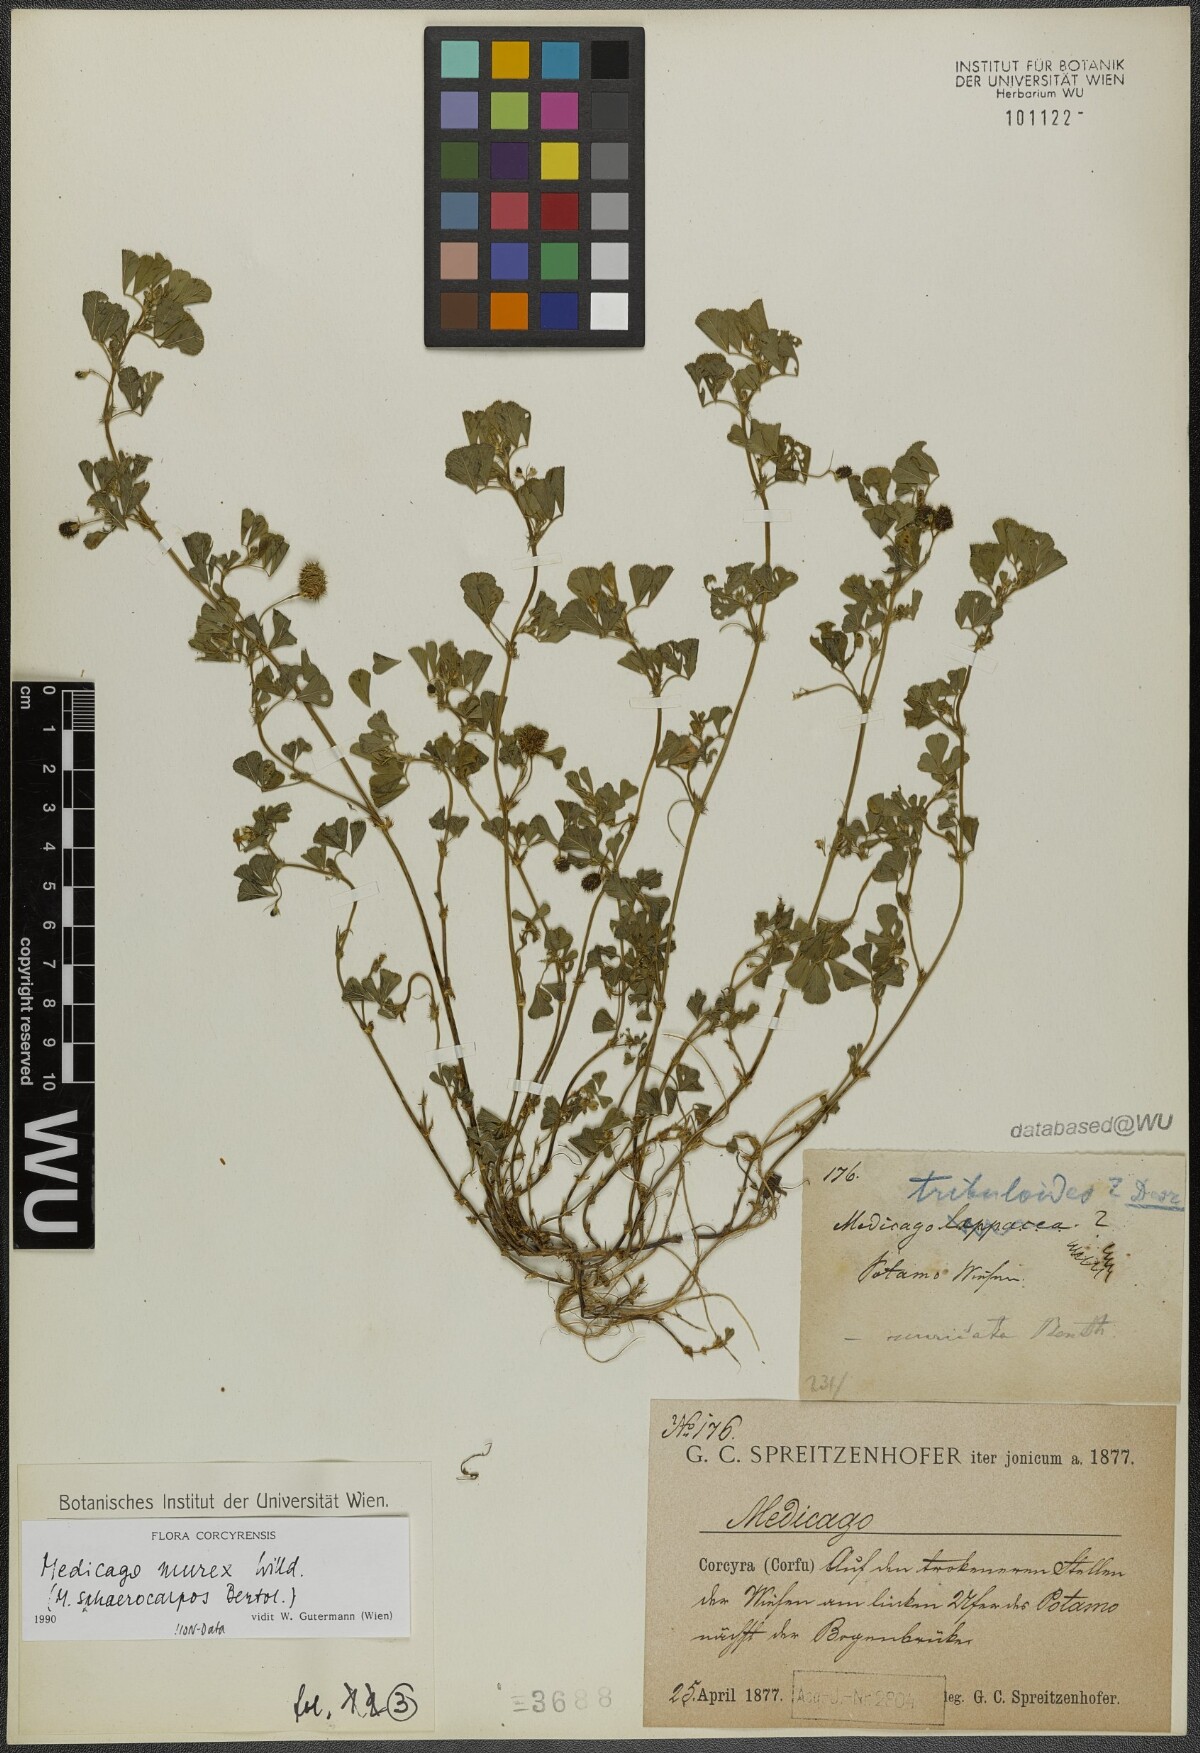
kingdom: Plantae
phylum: Tracheophyta
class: Magnoliopsida
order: Fabales
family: Fabaceae
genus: Medicago
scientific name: Medicago murex
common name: Murex
